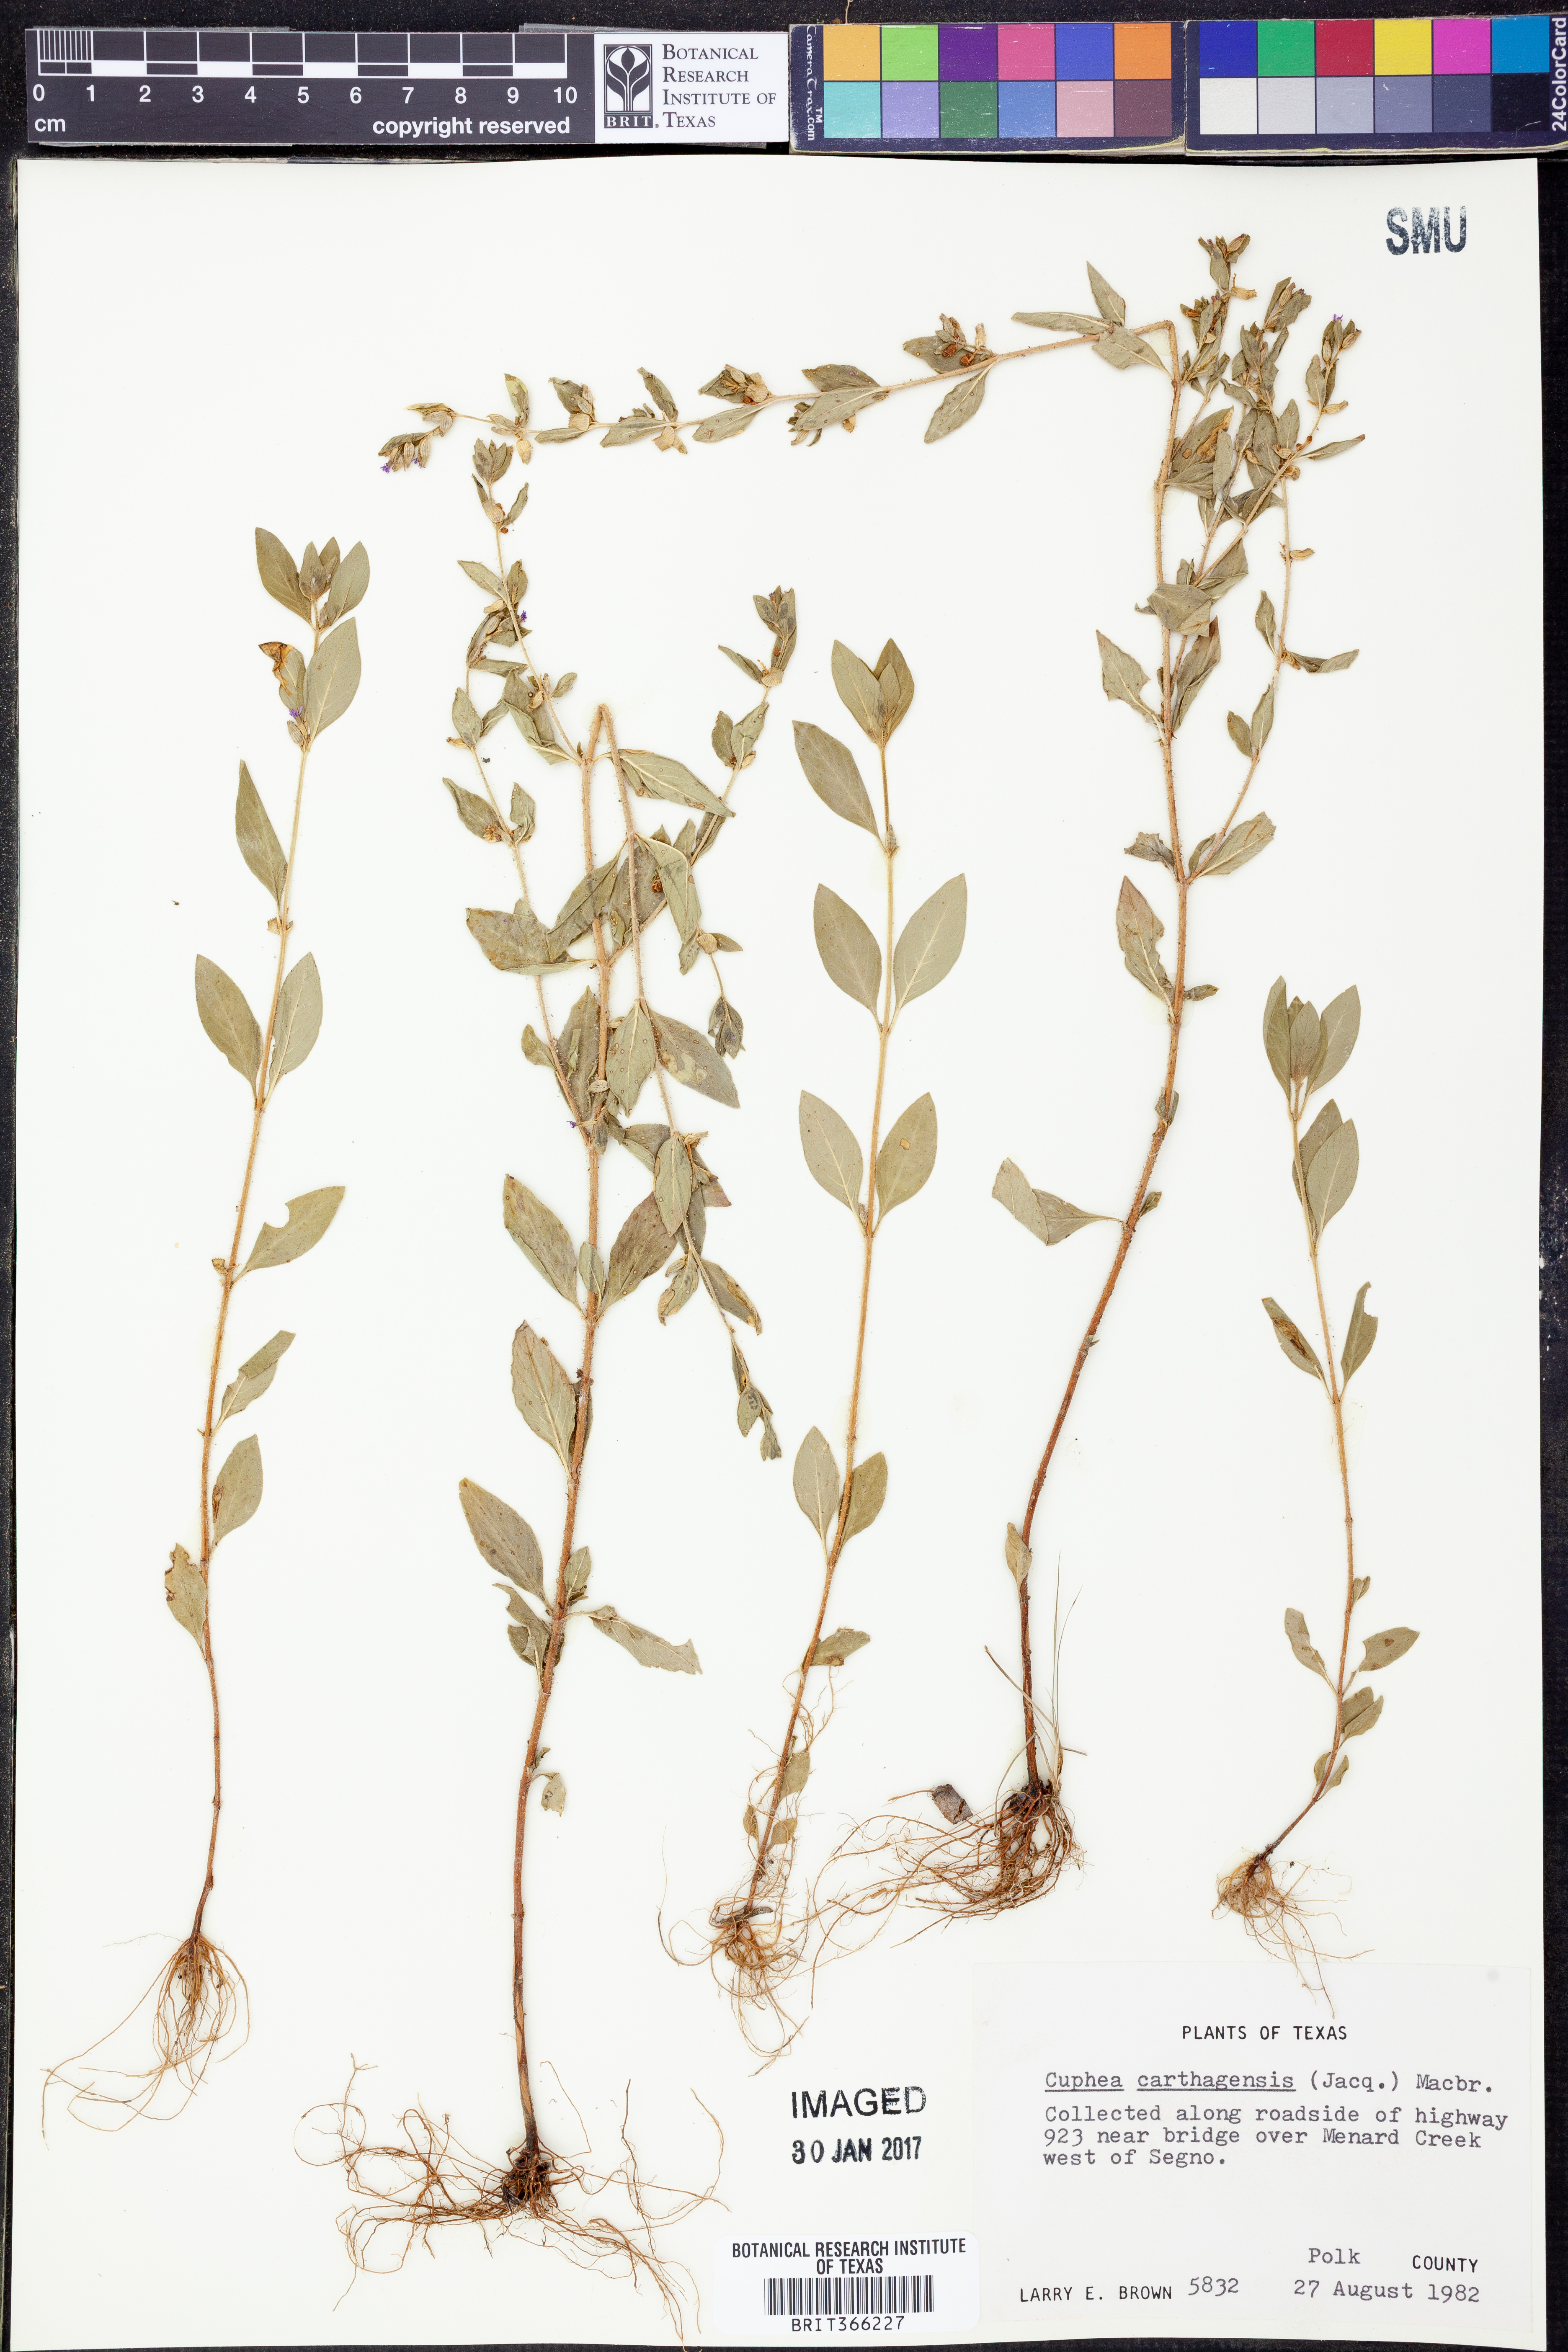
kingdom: Plantae
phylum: Tracheophyta
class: Magnoliopsida
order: Myrtales
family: Lythraceae
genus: Cuphea
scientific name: Cuphea carthagenensis
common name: Colombian waxweed
